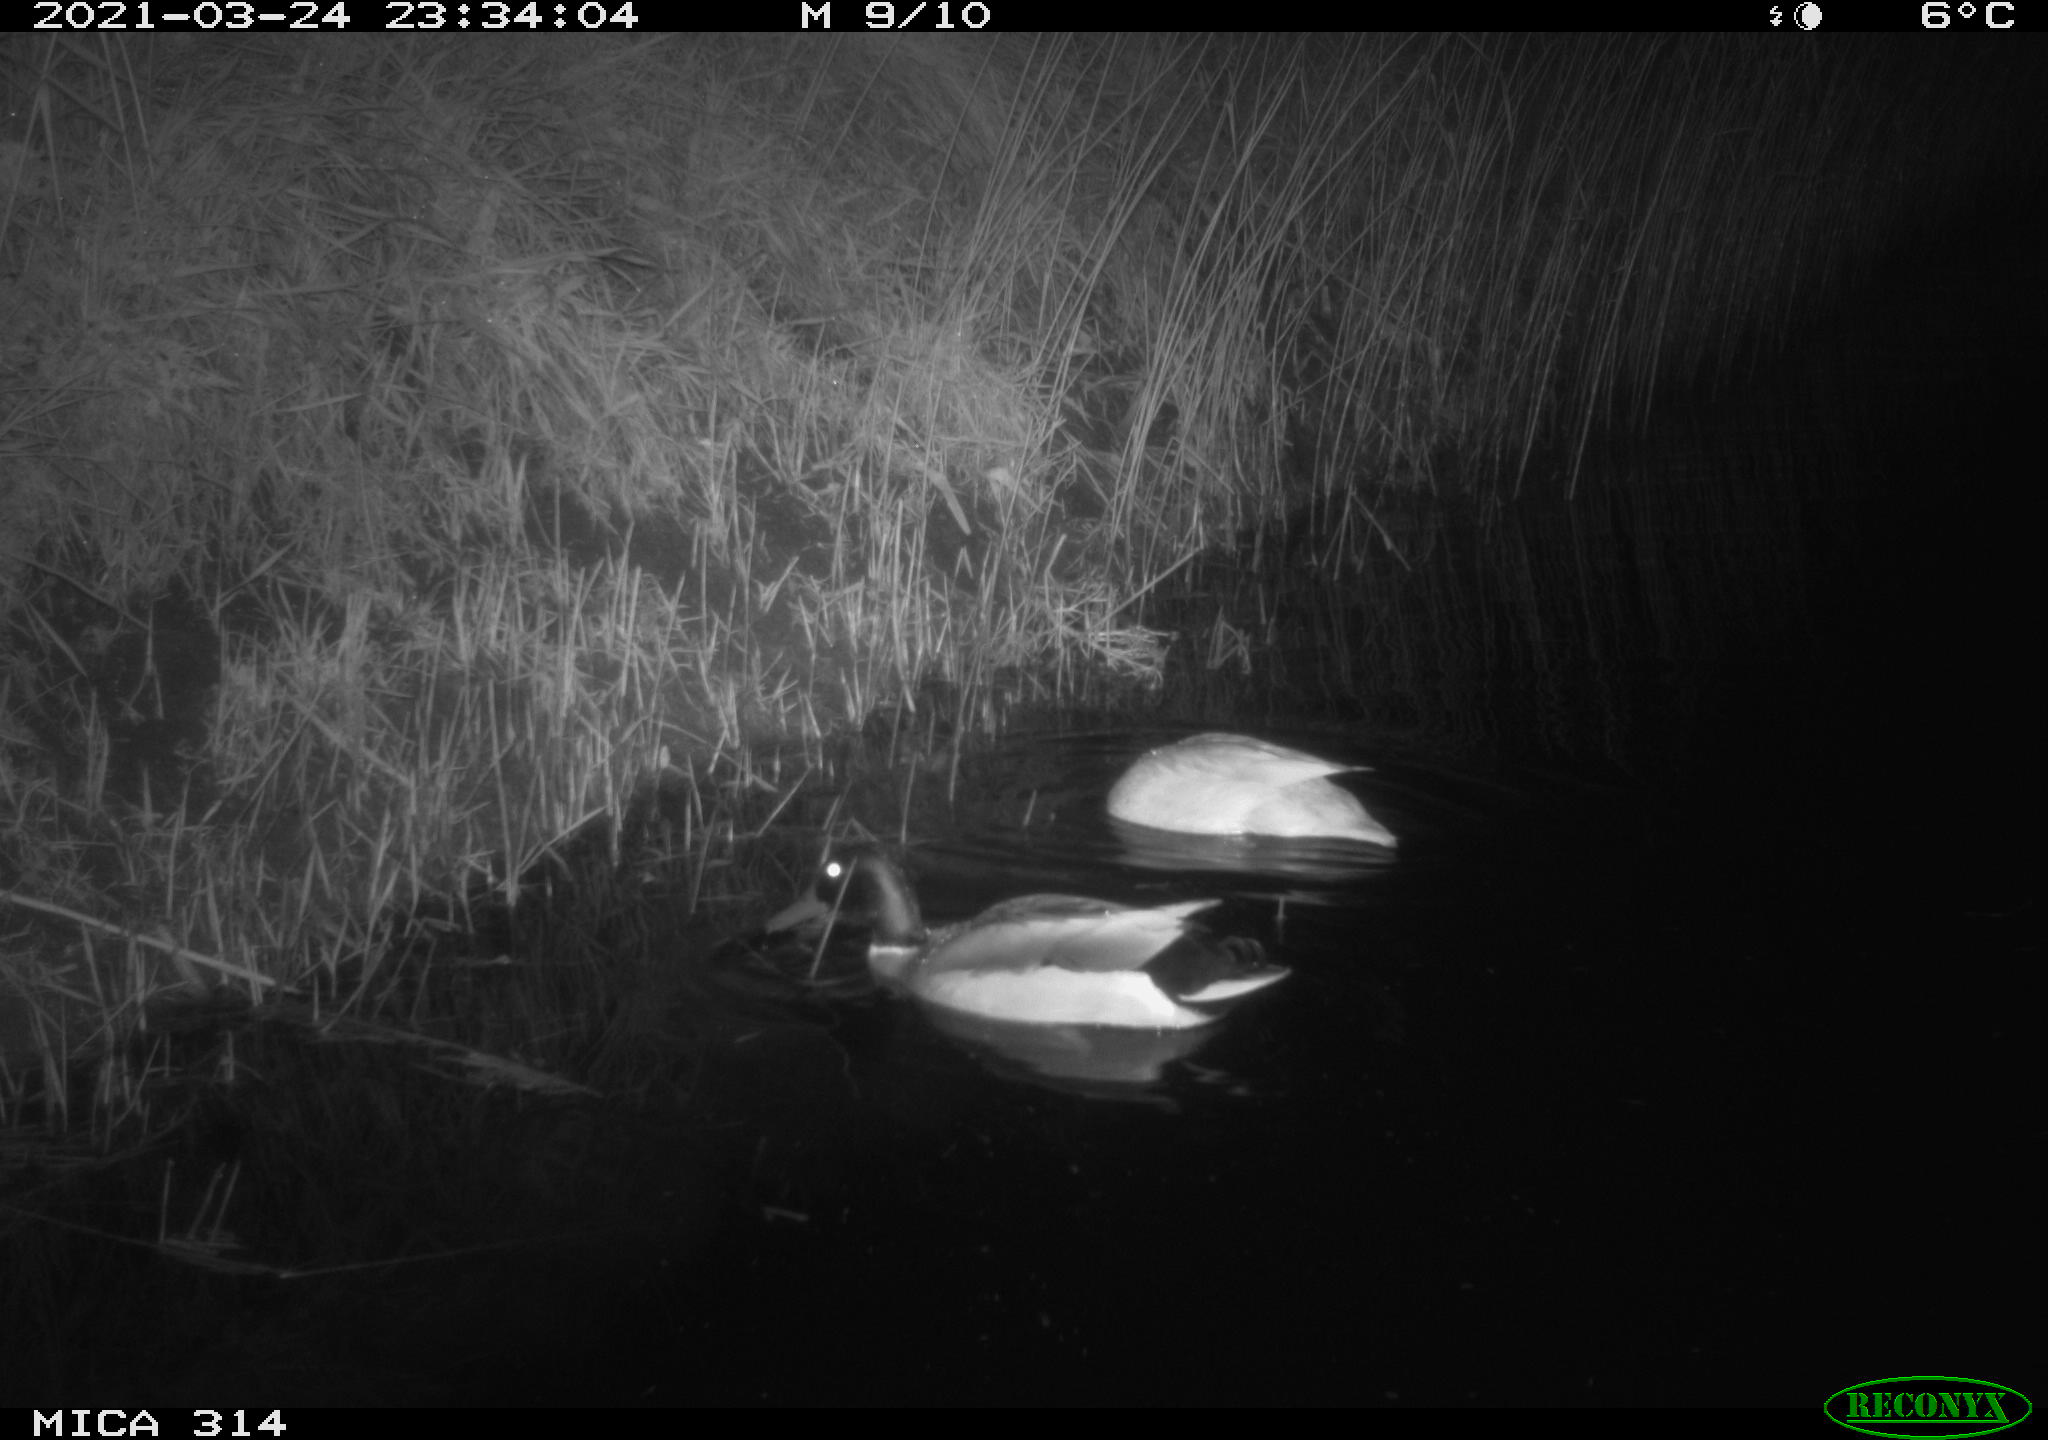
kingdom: Animalia
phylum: Chordata
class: Aves
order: Anseriformes
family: Anatidae
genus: Anas
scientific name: Anas platyrhynchos
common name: Mallard
